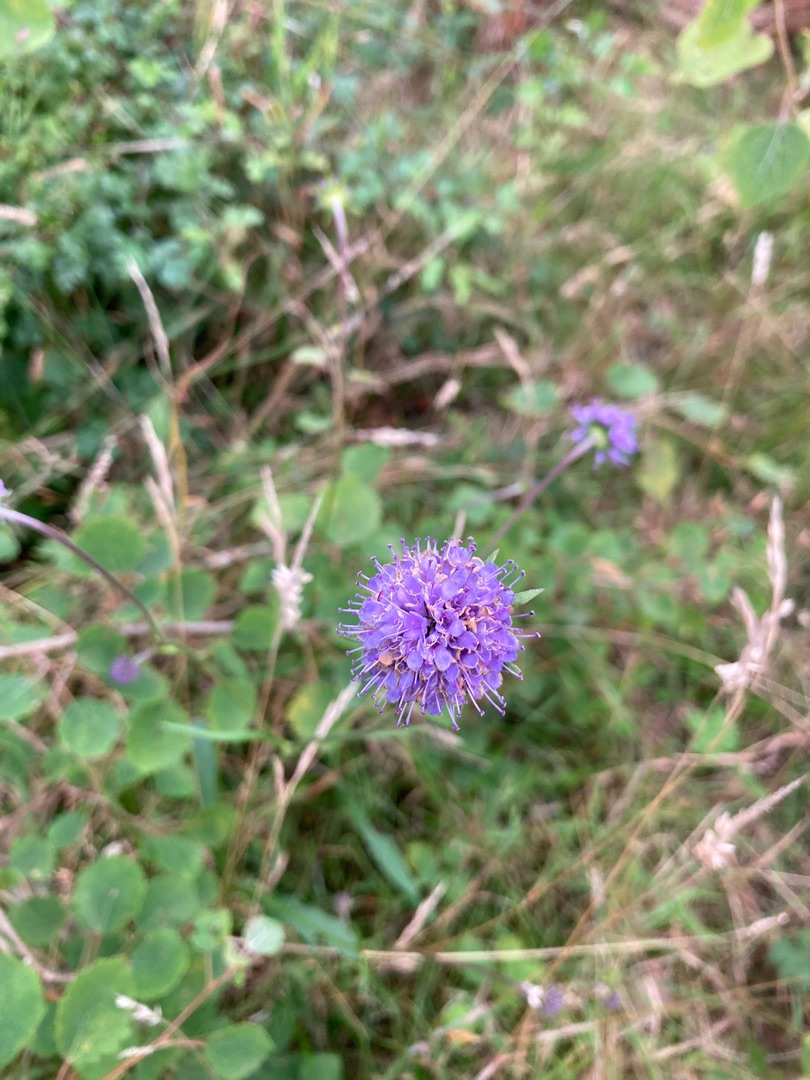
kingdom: Plantae
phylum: Tracheophyta
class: Magnoliopsida
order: Dipsacales
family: Caprifoliaceae
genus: Succisa
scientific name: Succisa pratensis
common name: Djævelsbid
